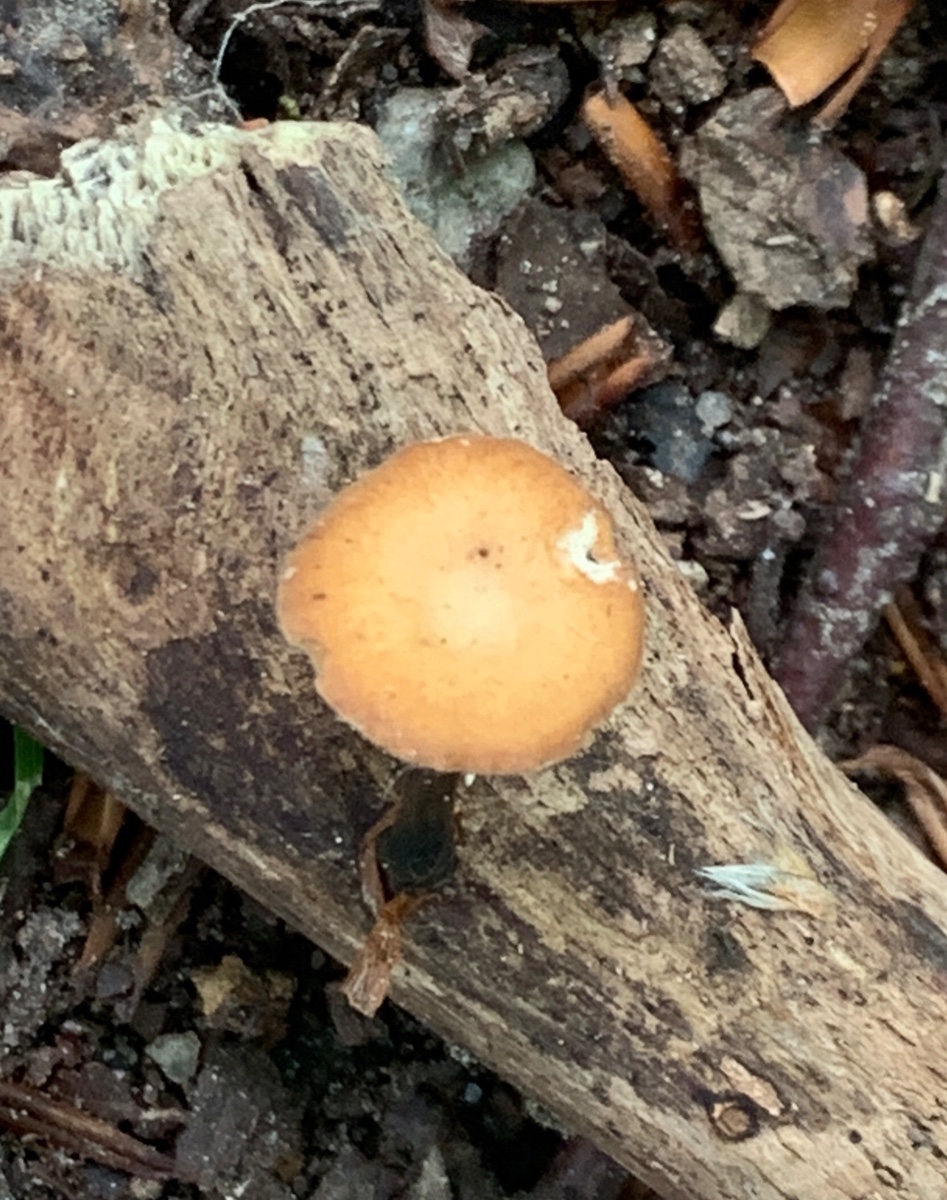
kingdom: Fungi
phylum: Basidiomycota
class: Agaricomycetes
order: Polyporales
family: Polyporaceae
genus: Cerioporus
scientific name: Cerioporus varius
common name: foranderlig stilkporesvamp
